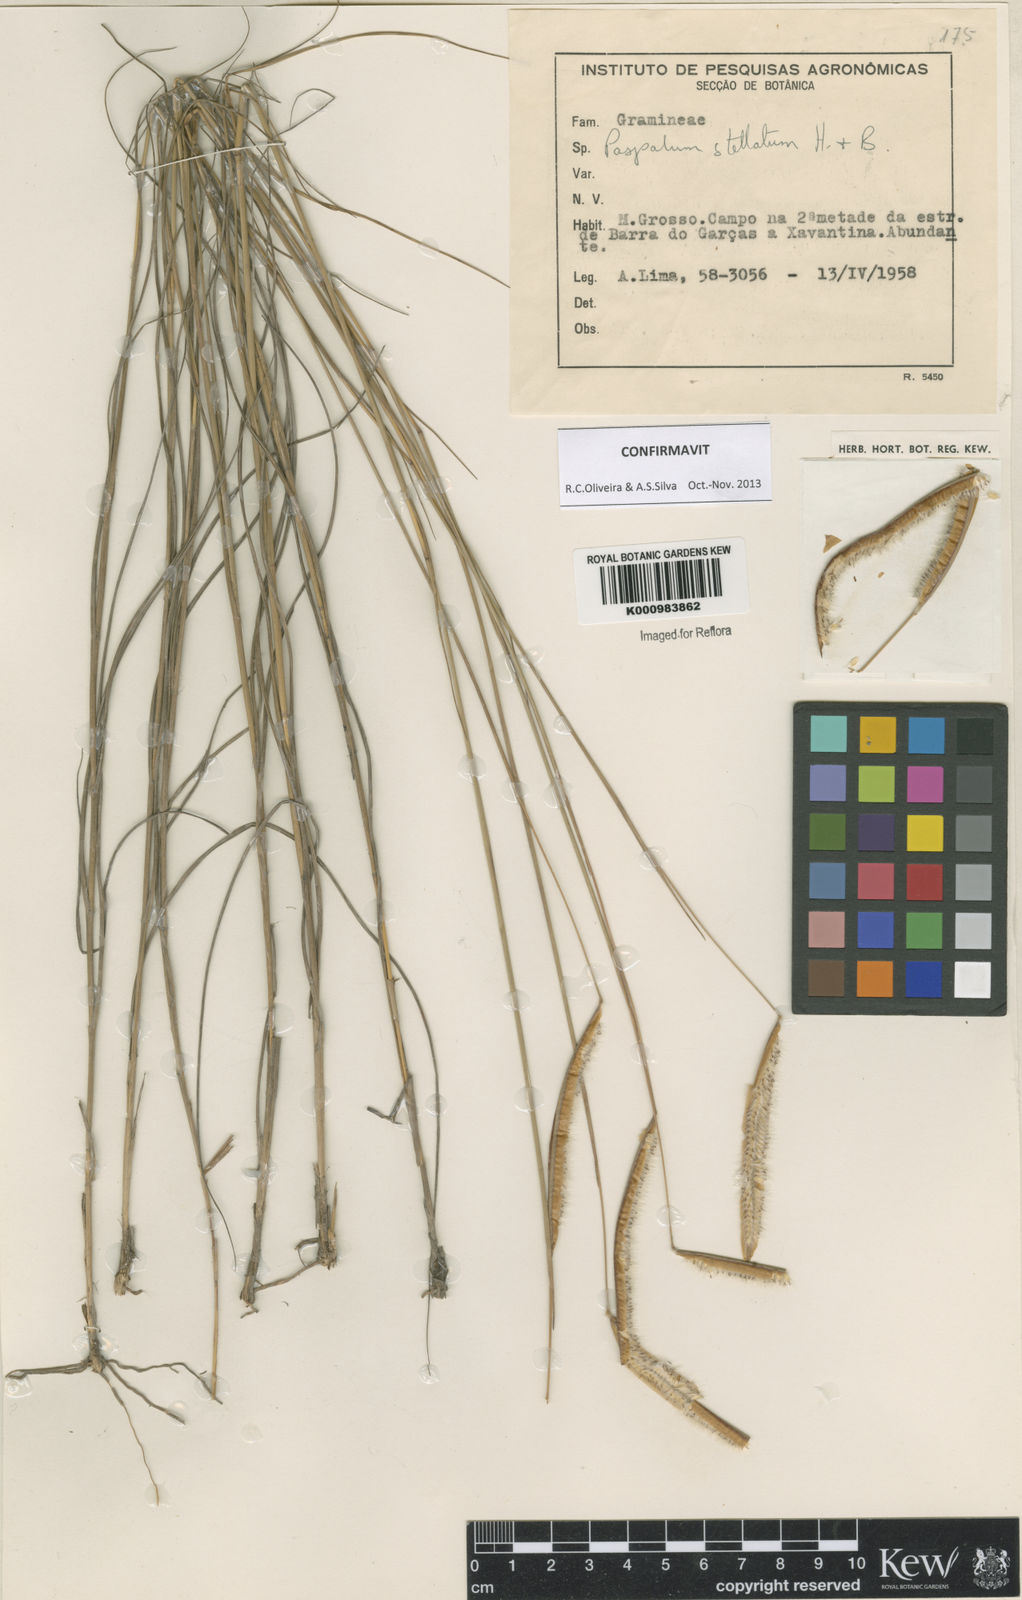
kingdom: Plantae
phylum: Tracheophyta
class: Liliopsida
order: Poales
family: Poaceae
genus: Paspalum
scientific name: Paspalum
